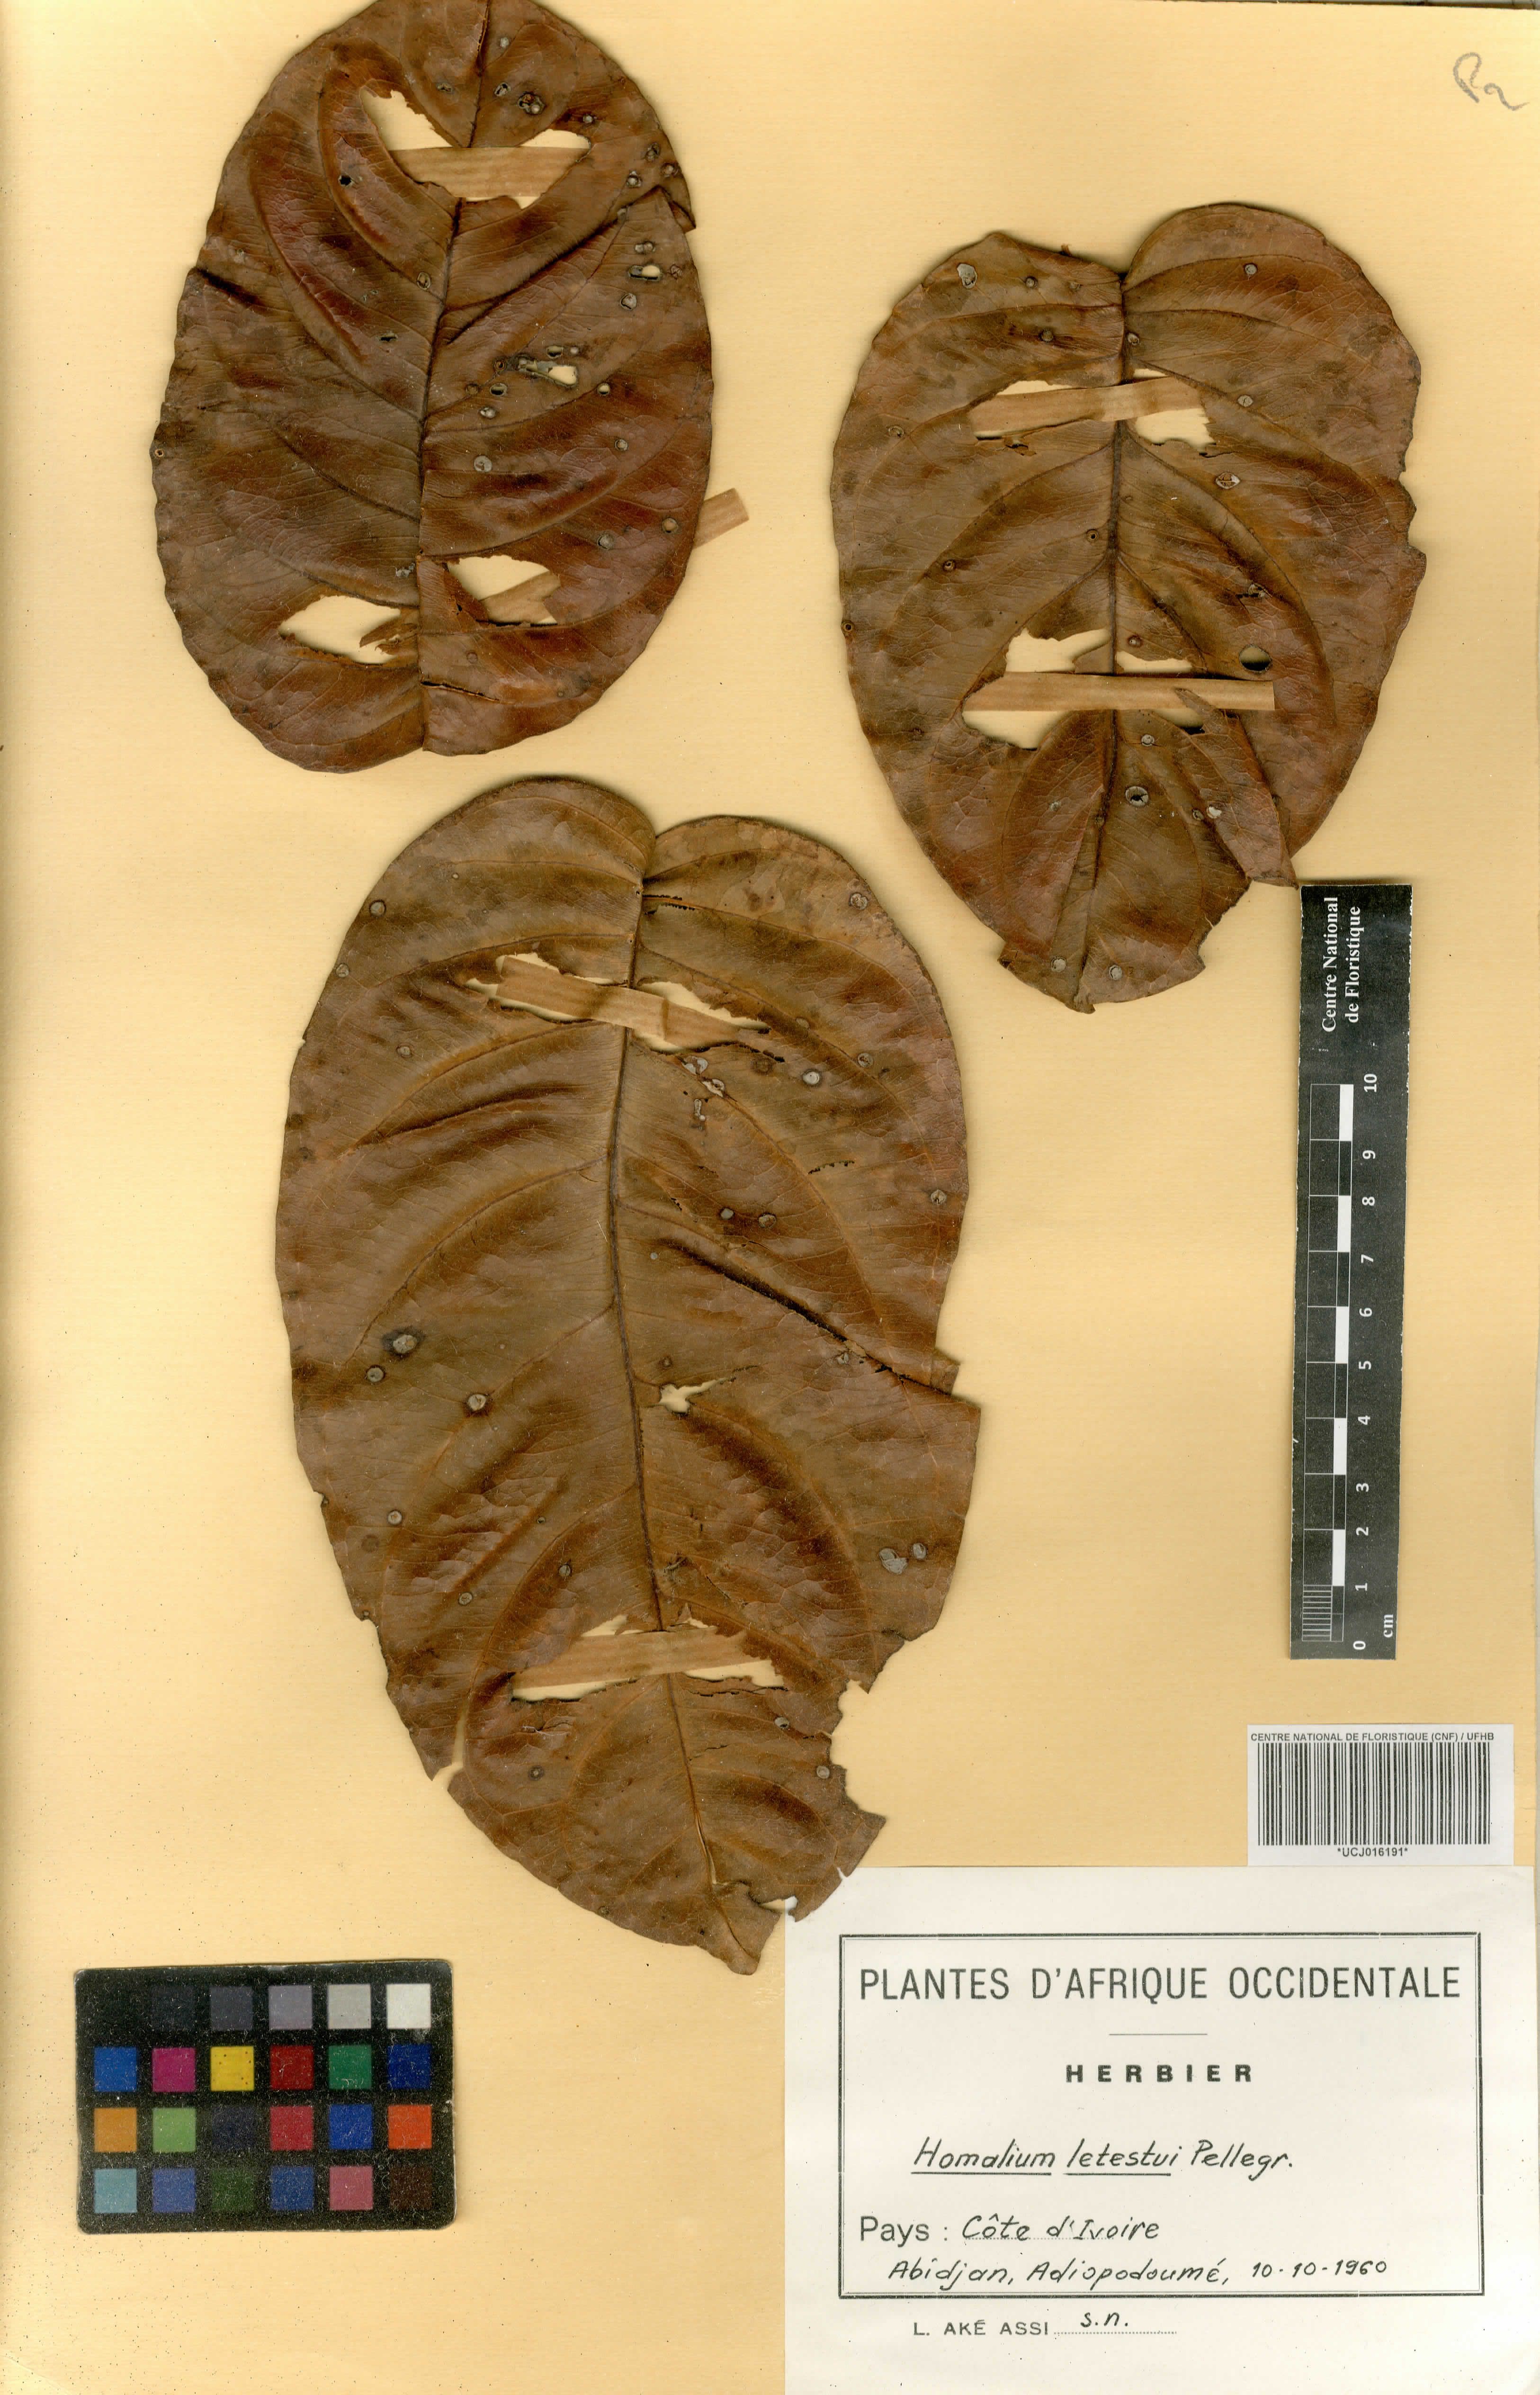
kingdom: Plantae
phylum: Tracheophyta
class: Magnoliopsida
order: Malpighiales
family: Salicaceae
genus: Homalium
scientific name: Homalium letestui
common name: African homalium
